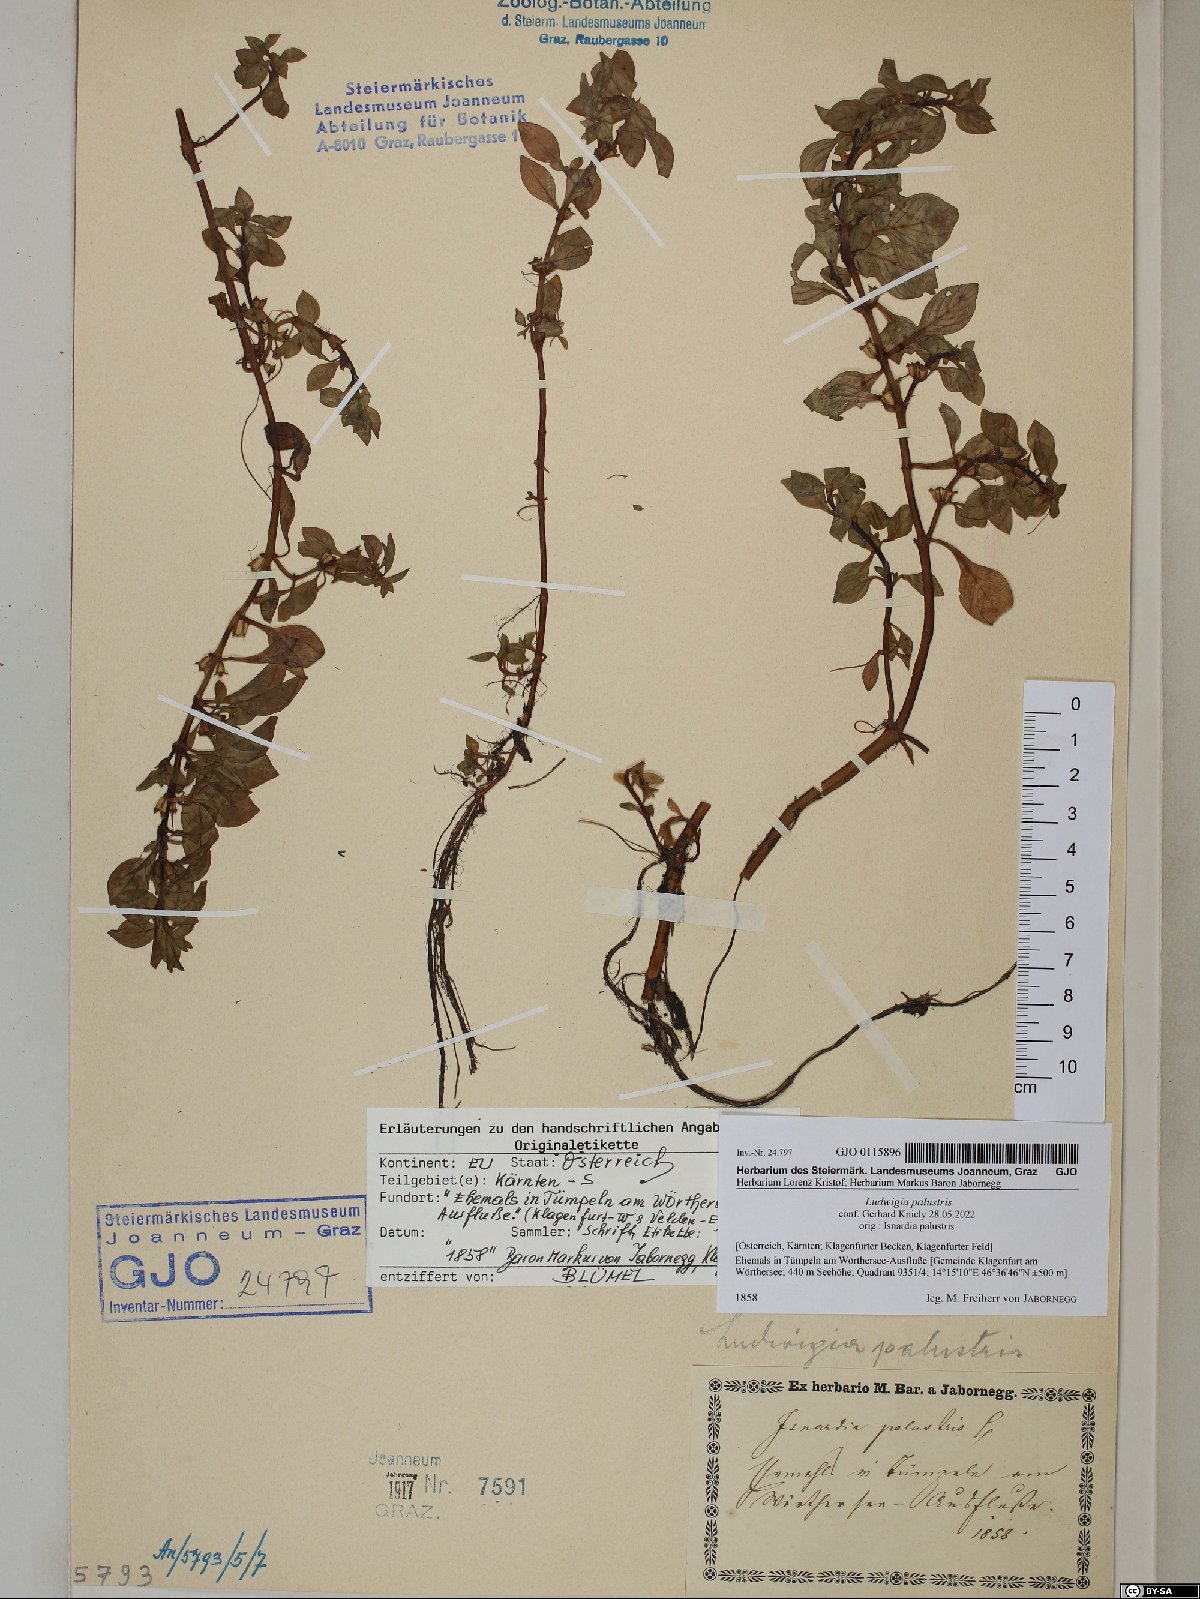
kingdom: Plantae
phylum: Tracheophyta
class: Magnoliopsida
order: Myrtales
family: Onagraceae
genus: Ludwigia
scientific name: Ludwigia palustris
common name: Hampshire-purslane
